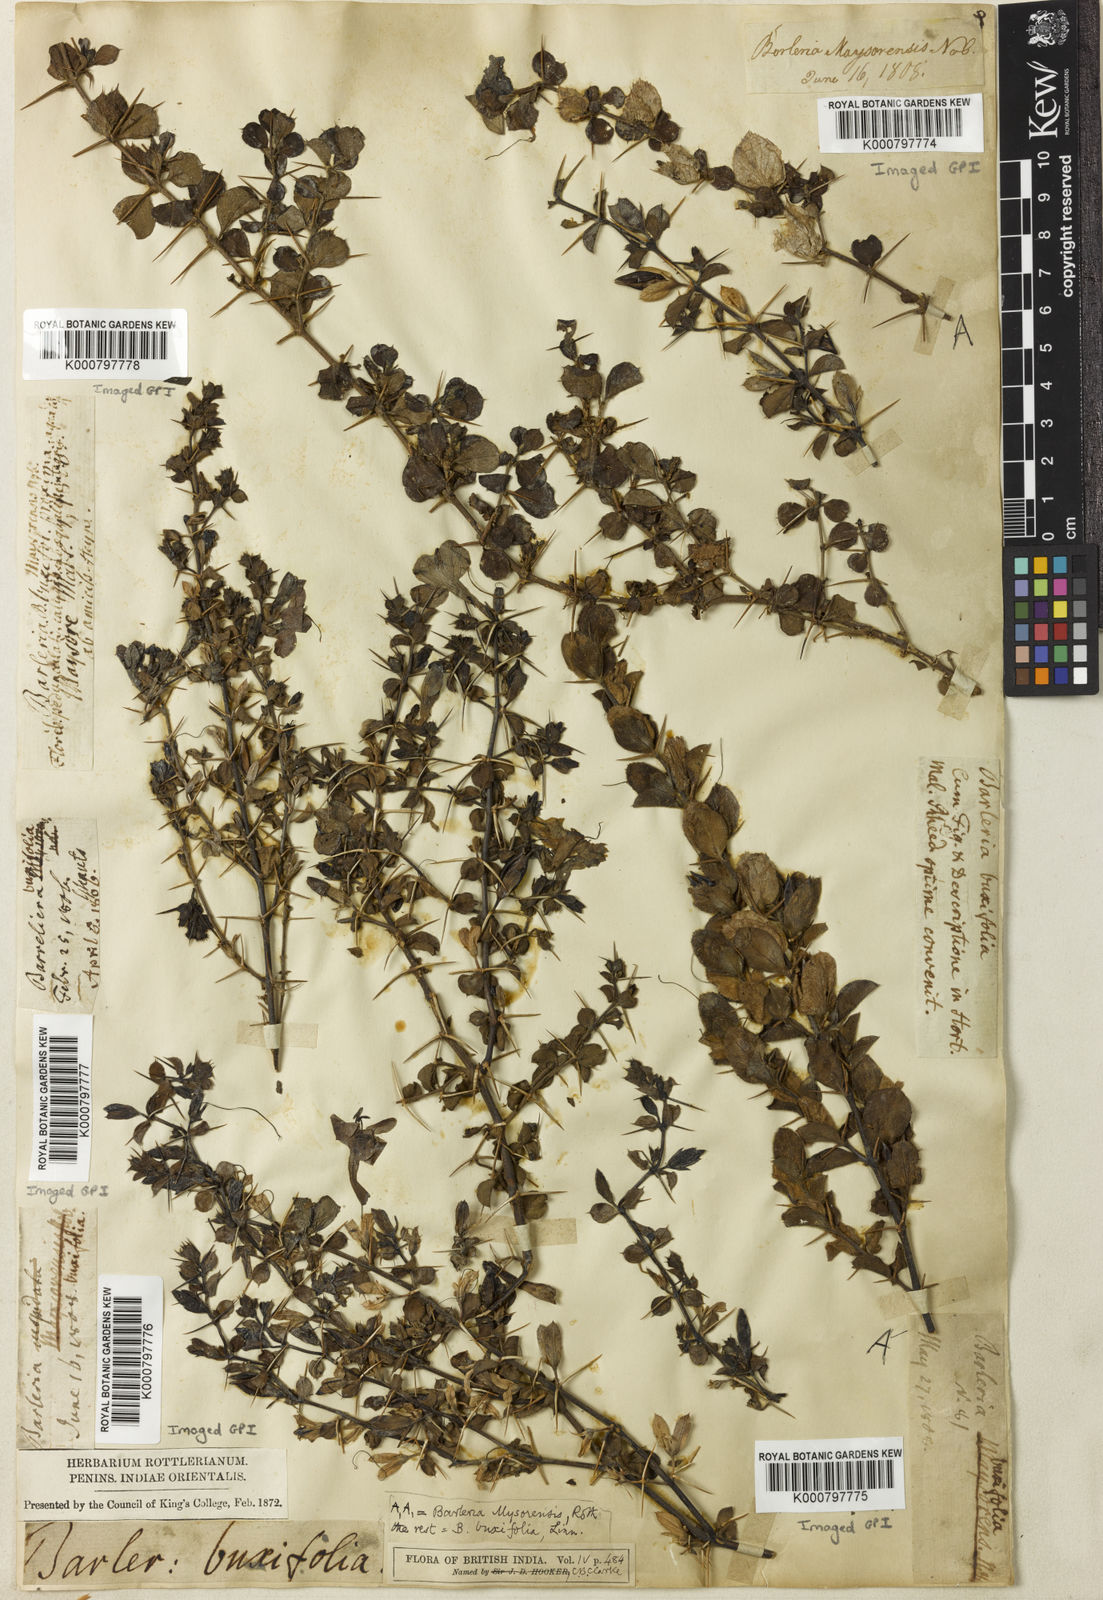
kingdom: Plantae
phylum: Tracheophyta
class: Magnoliopsida
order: Lamiales
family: Acanthaceae
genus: Barleria
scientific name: Barleria
